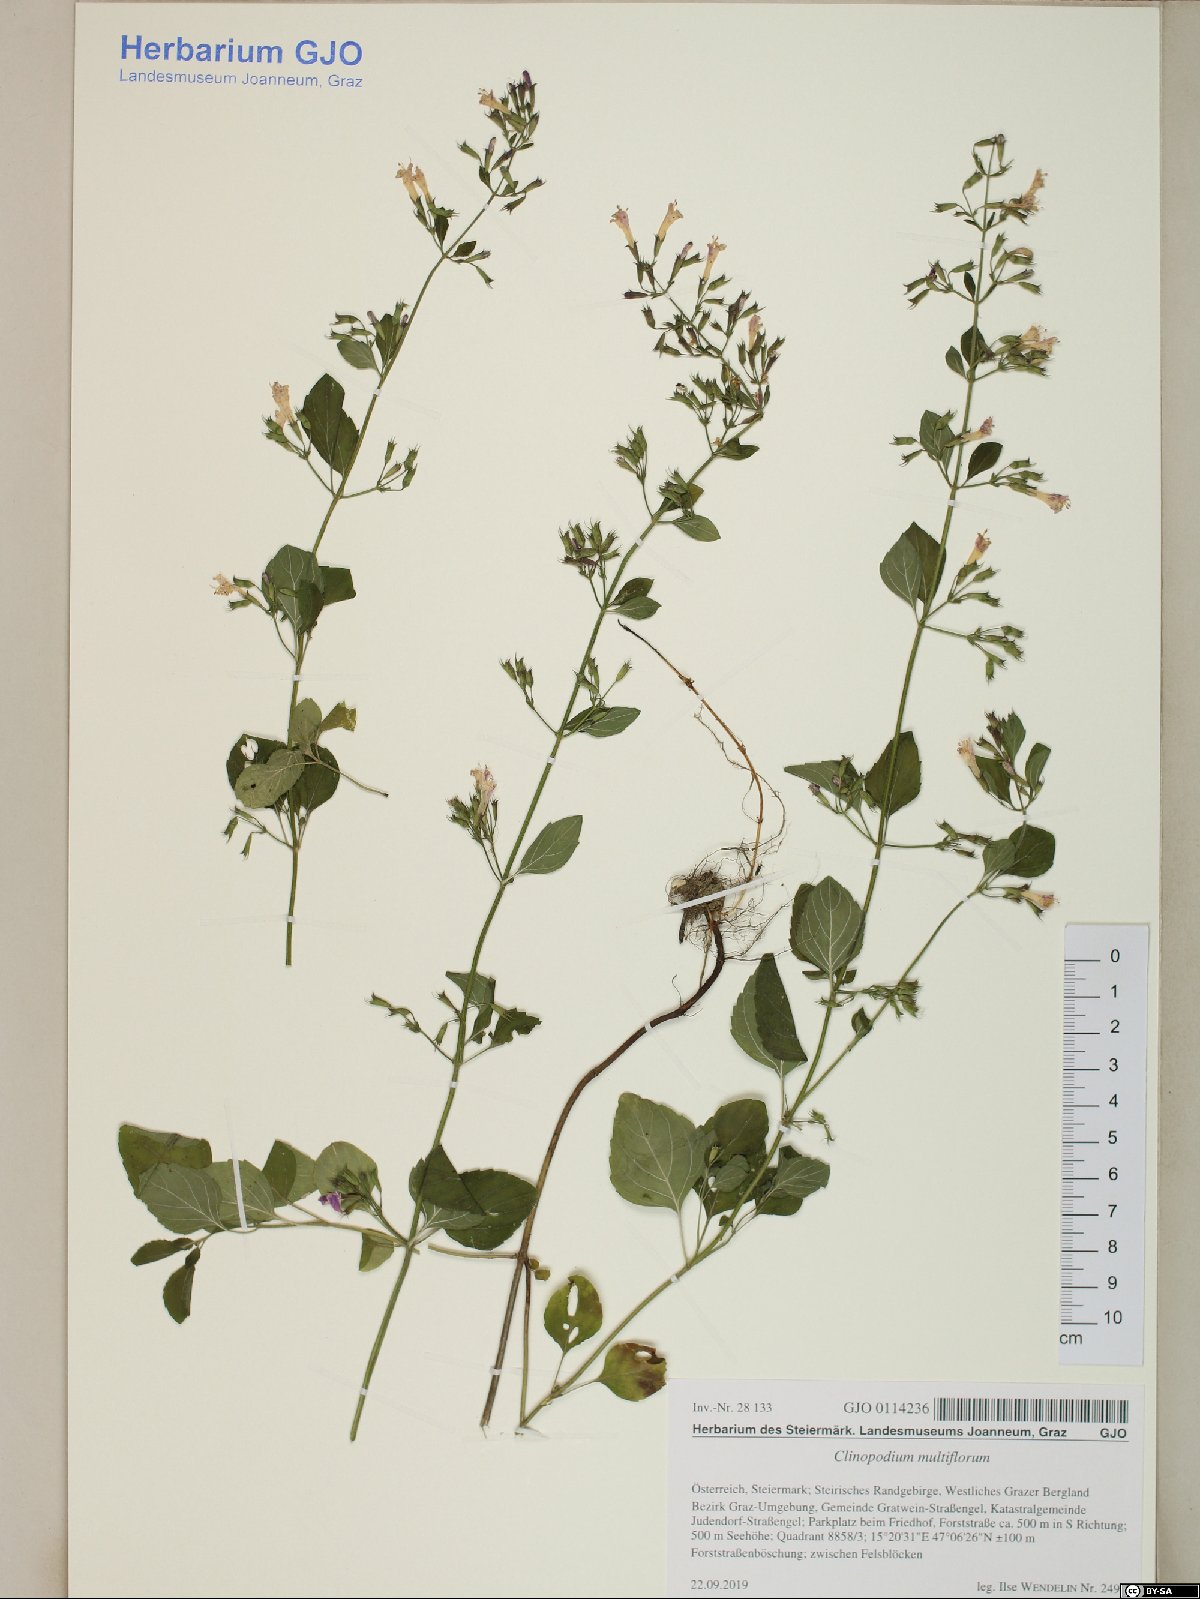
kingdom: Plantae
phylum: Tracheophyta
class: Magnoliopsida
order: Lamiales
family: Lamiaceae
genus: Clinopodium
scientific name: Clinopodium multiflorum
